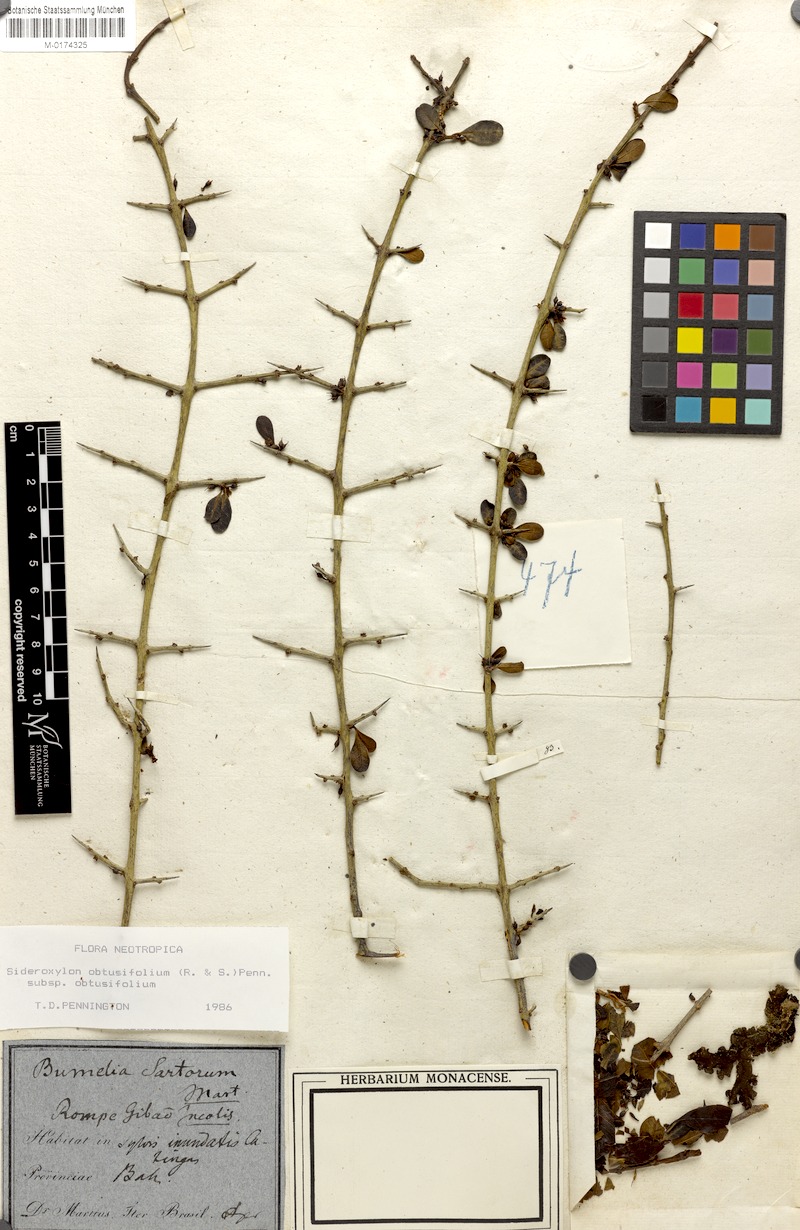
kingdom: Plantae
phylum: Tracheophyta
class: Magnoliopsida
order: Ericales
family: Sapotaceae
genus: Sideroxylon
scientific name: Sideroxylon obtusifolium
